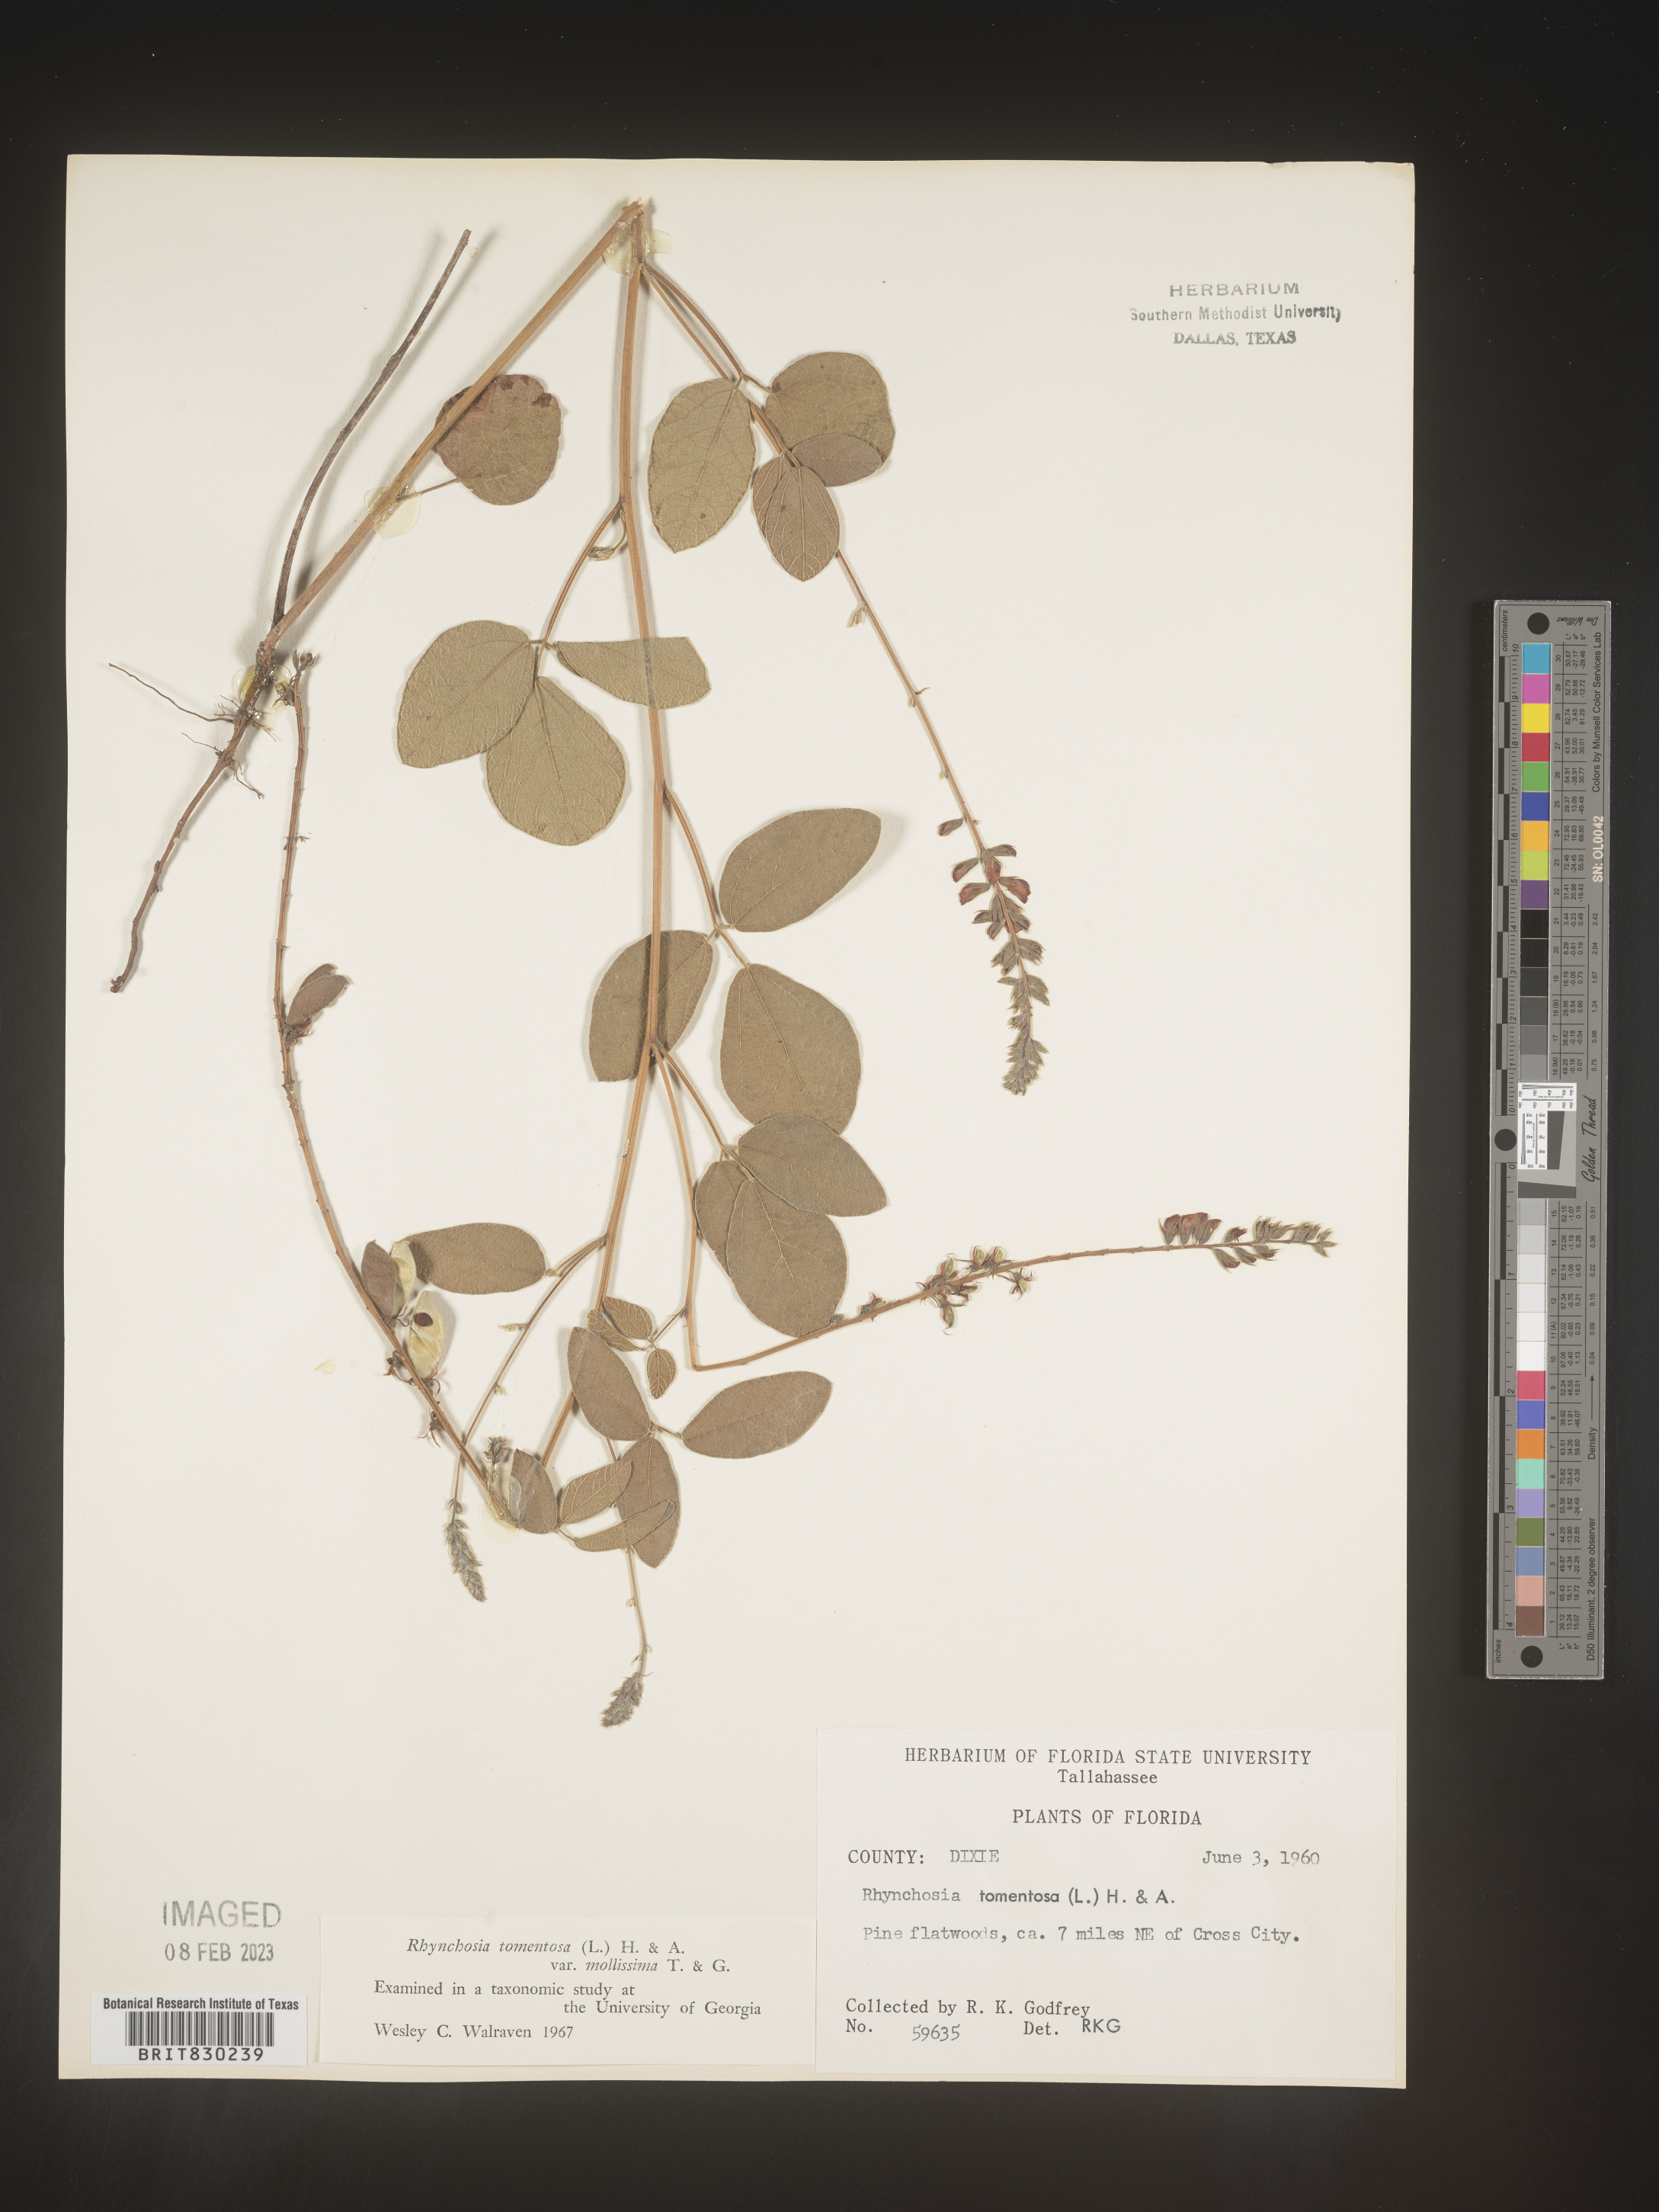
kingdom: Plantae
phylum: Tracheophyta
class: Magnoliopsida
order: Fabales
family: Fabaceae
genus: Rhynchosia
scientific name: Rhynchosia rothii
